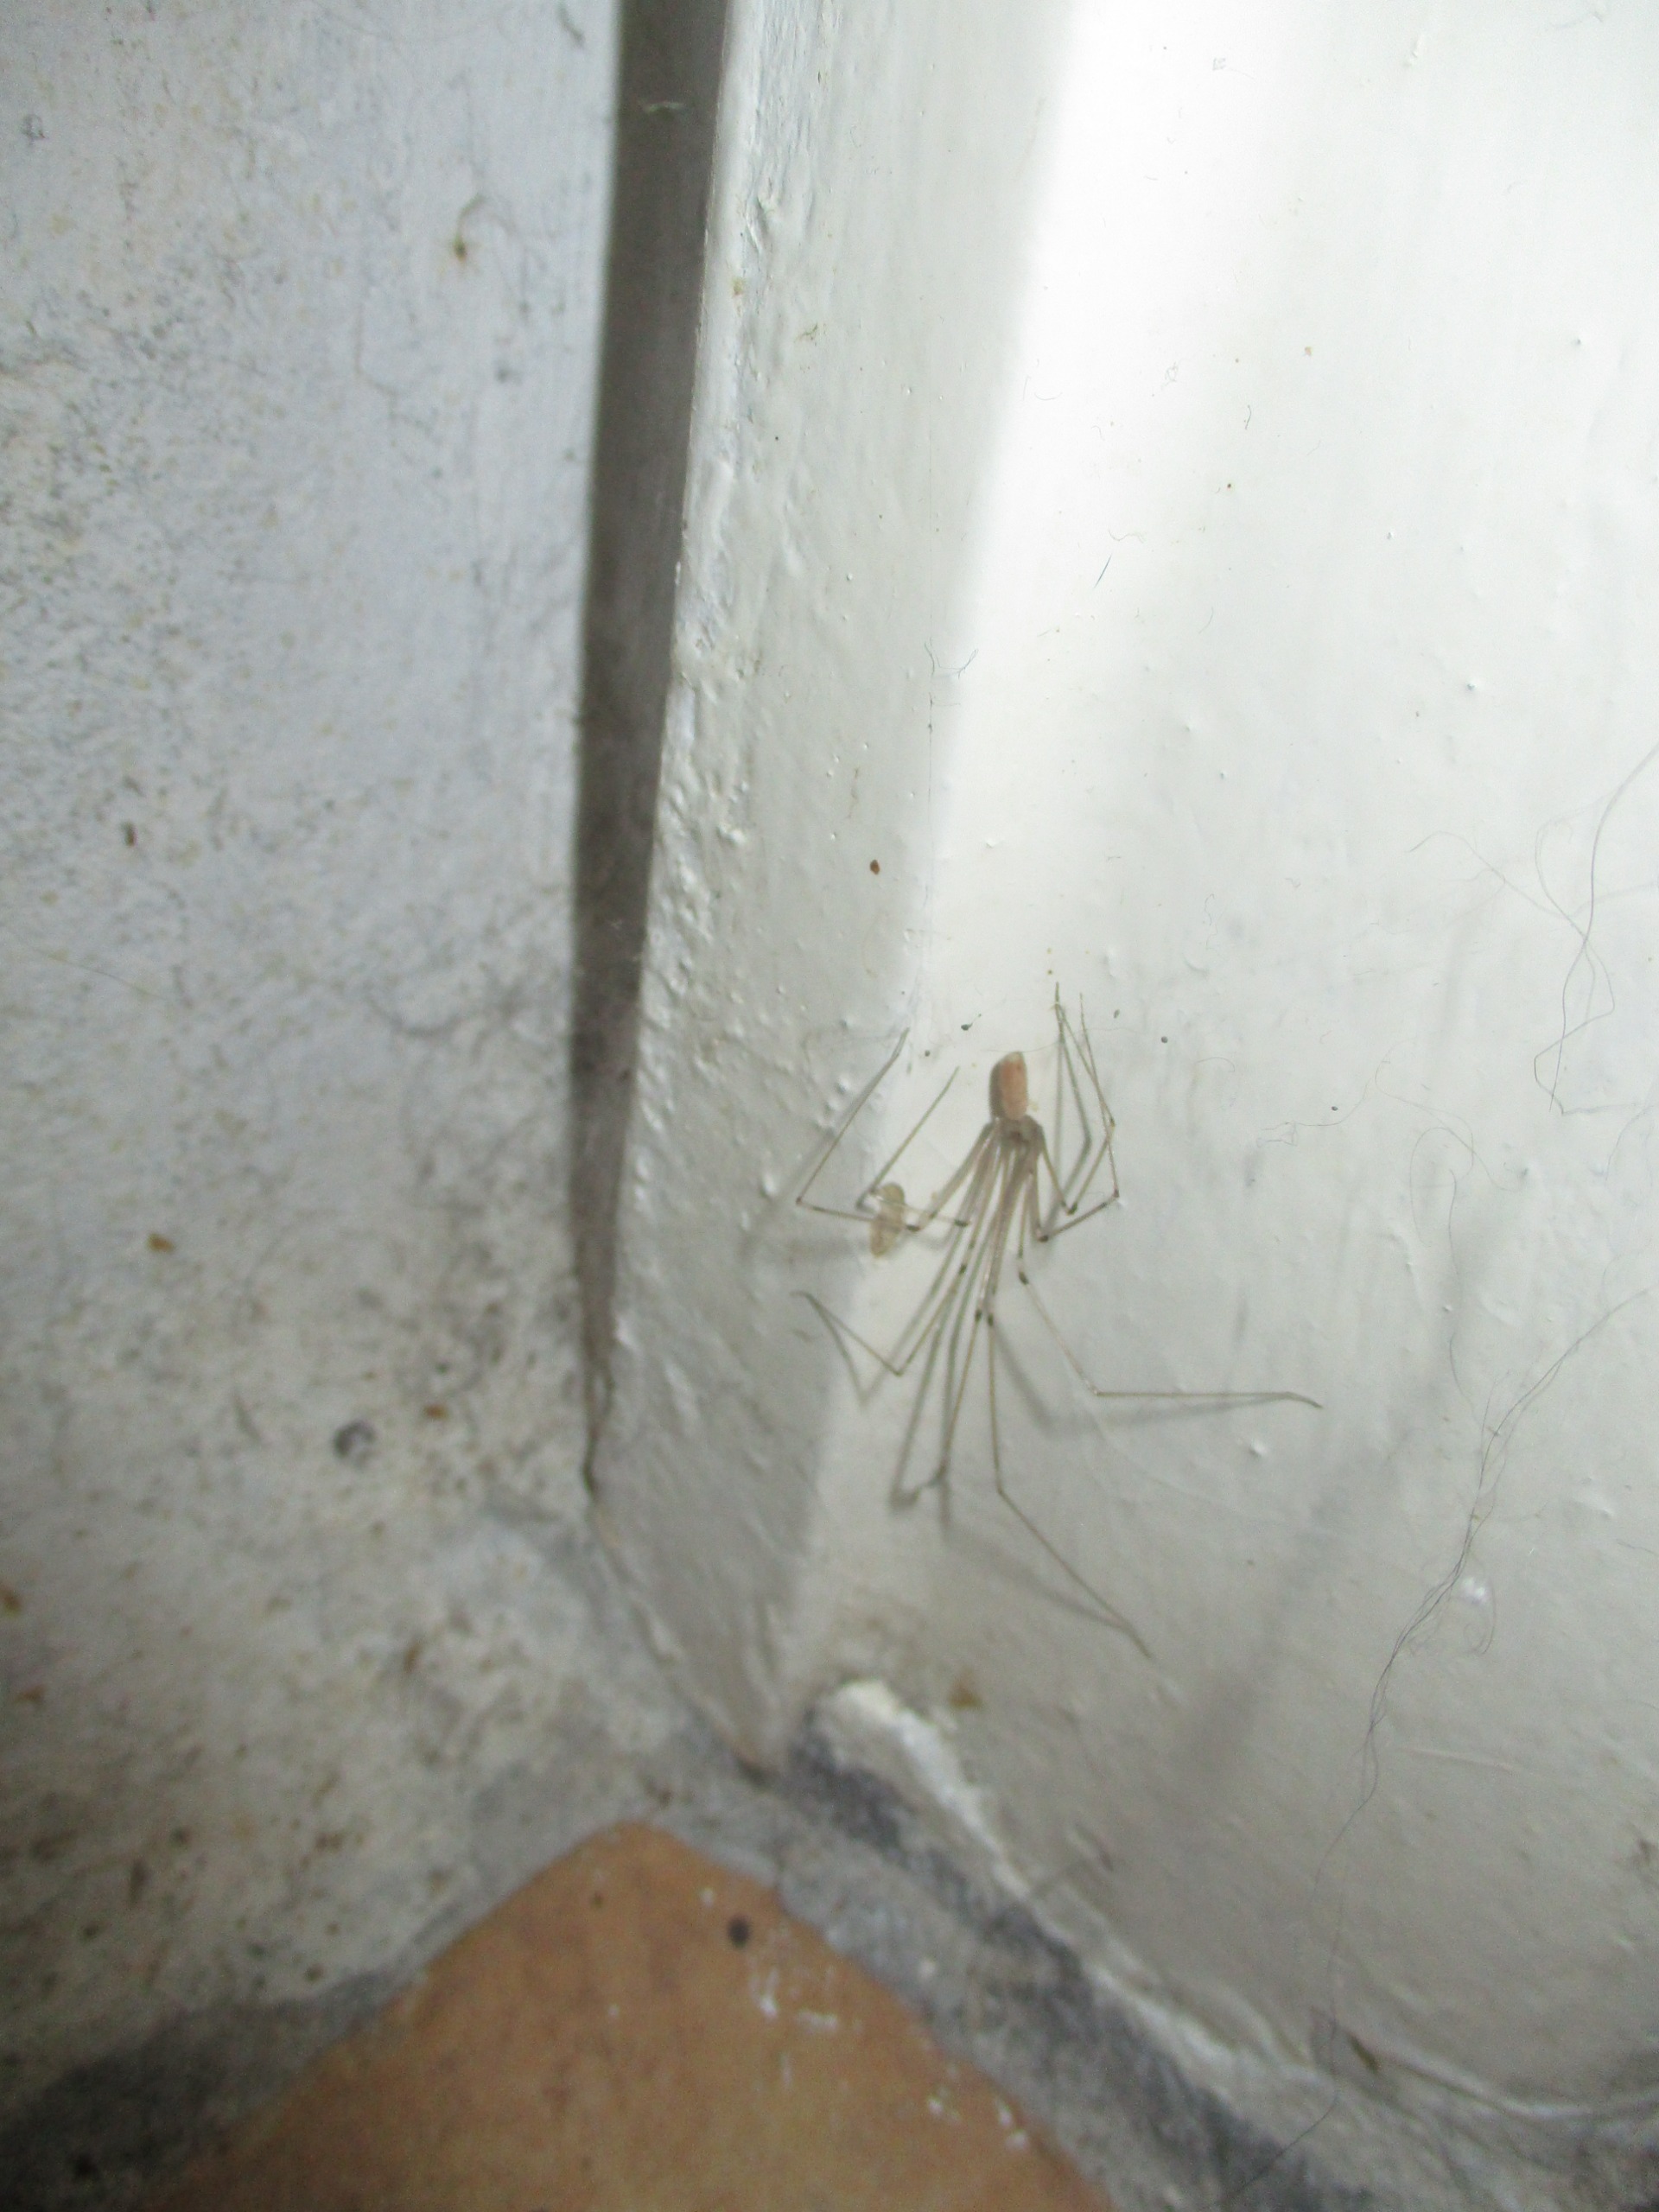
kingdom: Animalia
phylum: Arthropoda
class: Arachnida
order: Araneae
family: Pholcidae
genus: Pholcus
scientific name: Pholcus phalangioides
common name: Mejeredderkop
